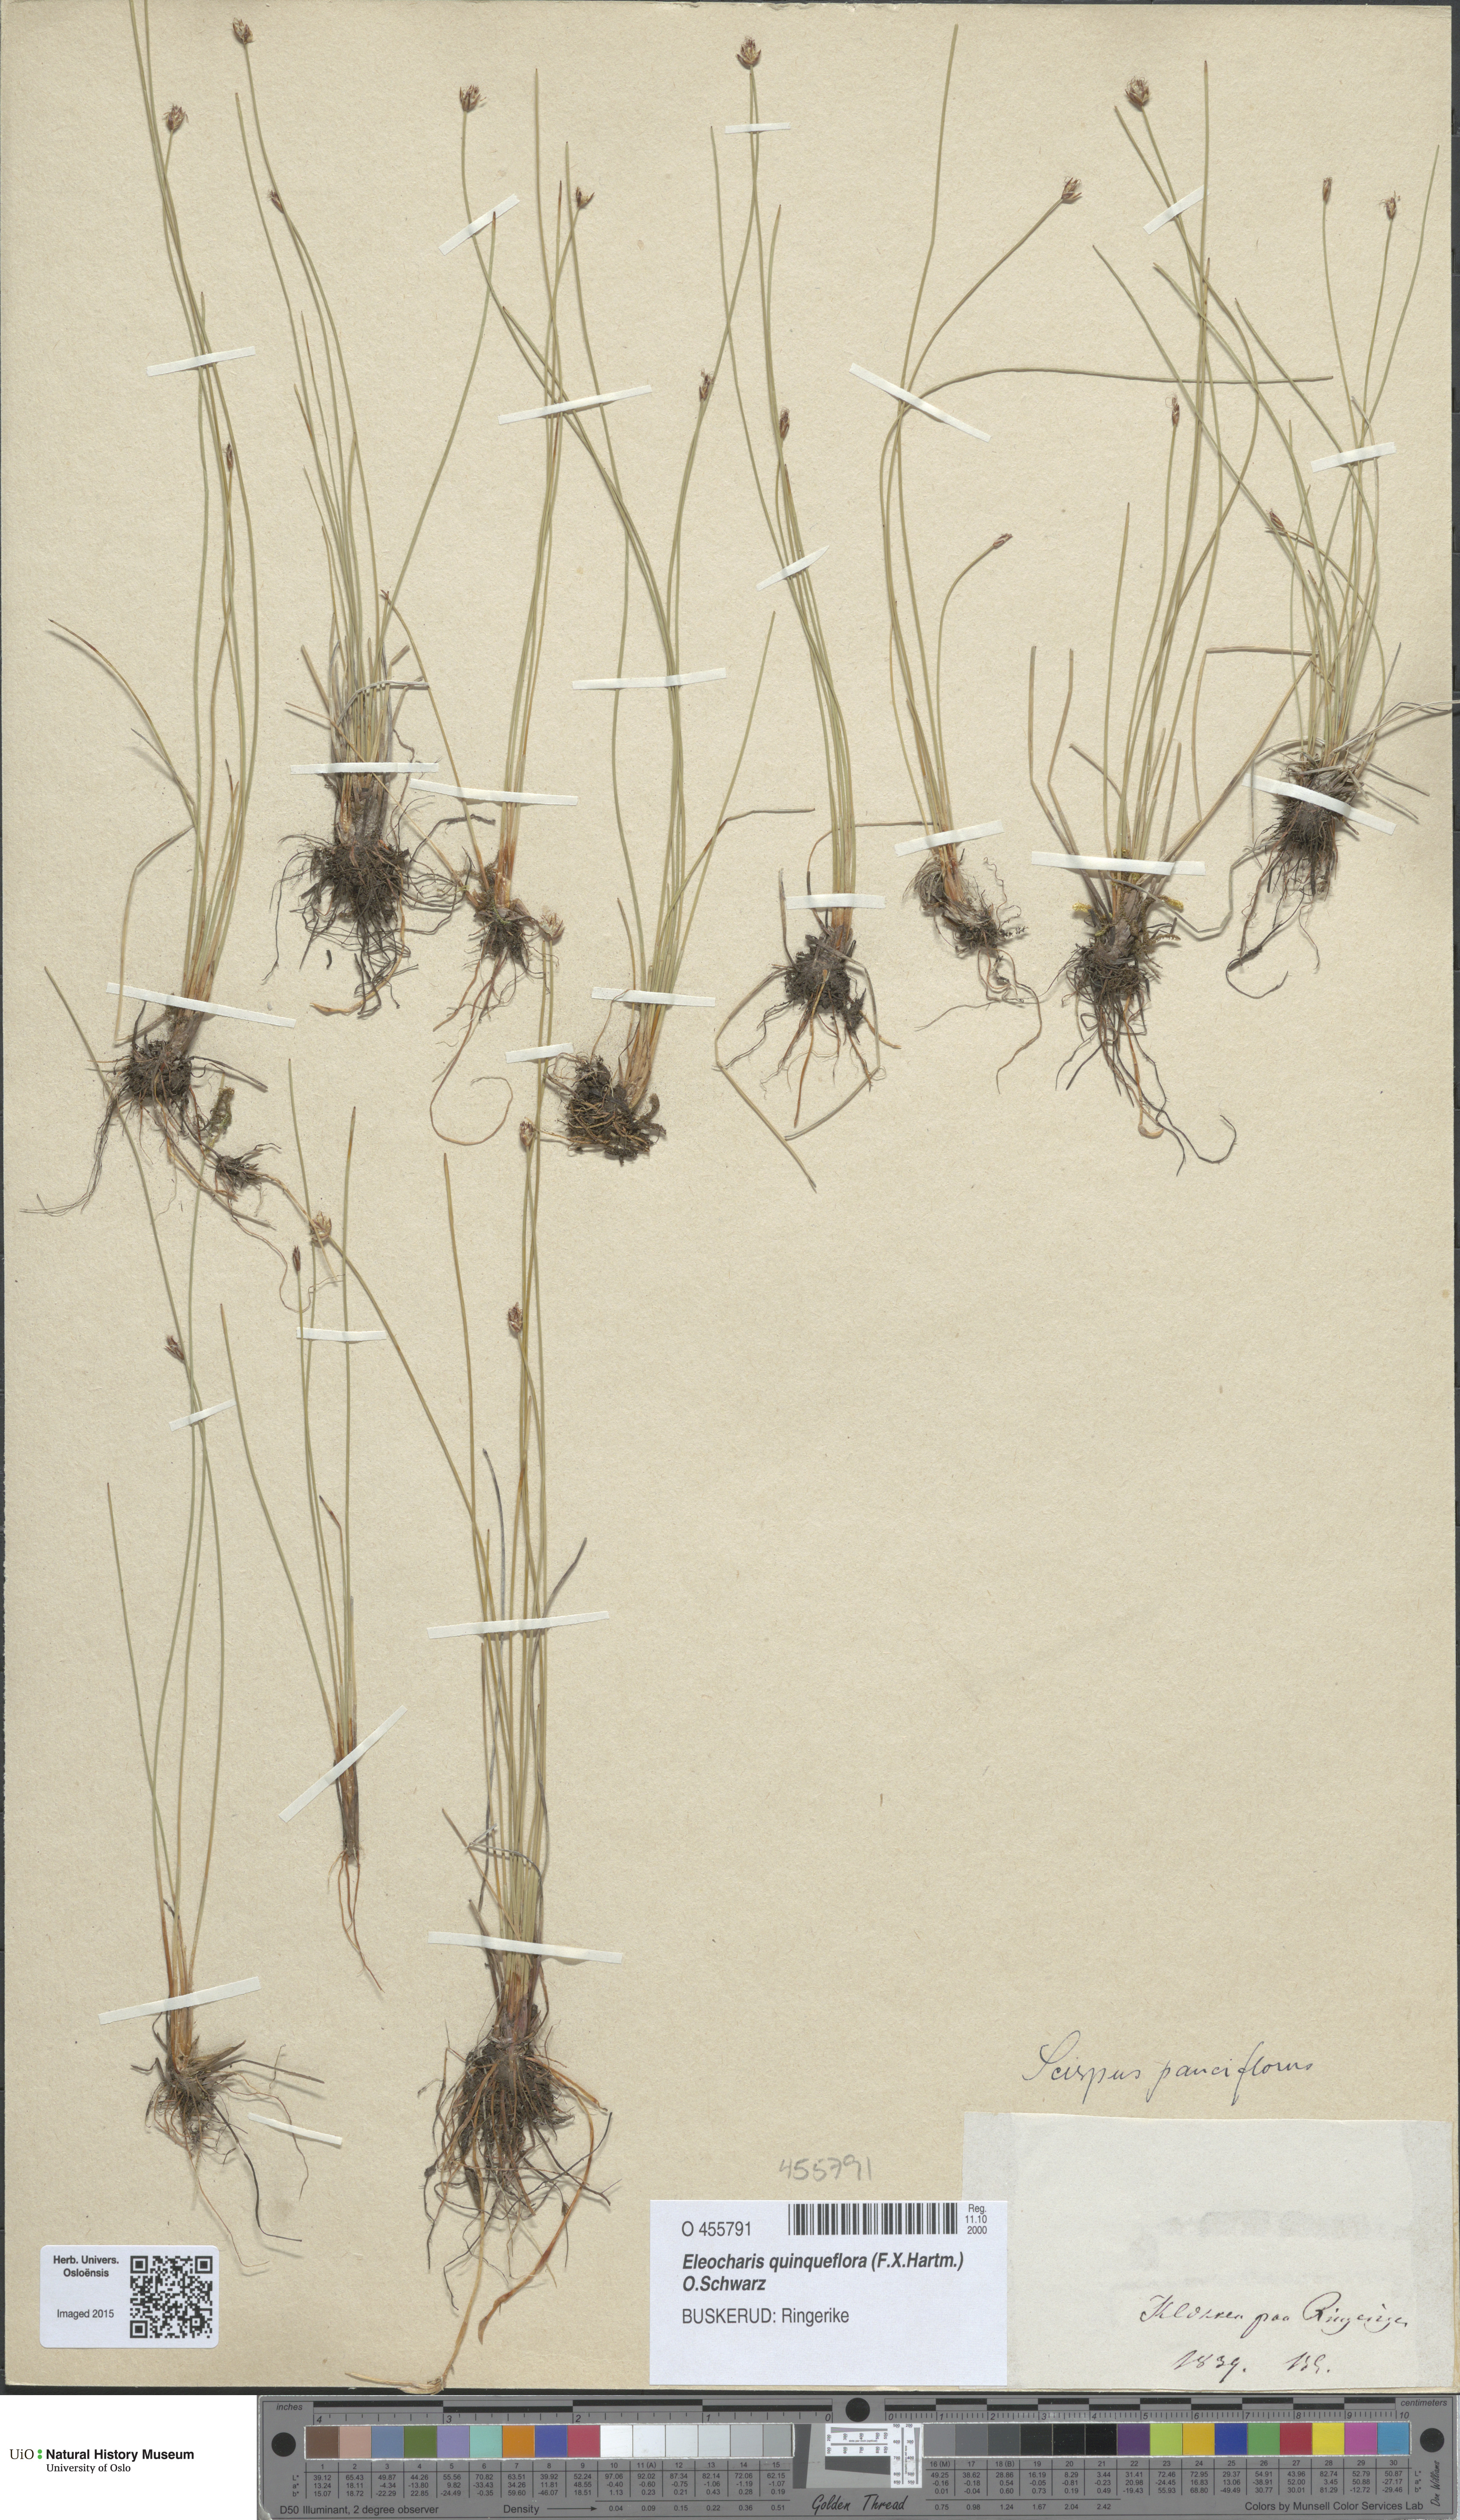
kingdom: Plantae
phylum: Tracheophyta
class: Liliopsida
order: Poales
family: Cyperaceae
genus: Eleocharis
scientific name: Eleocharis quinqueflora
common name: Few-flowered spike-rush
